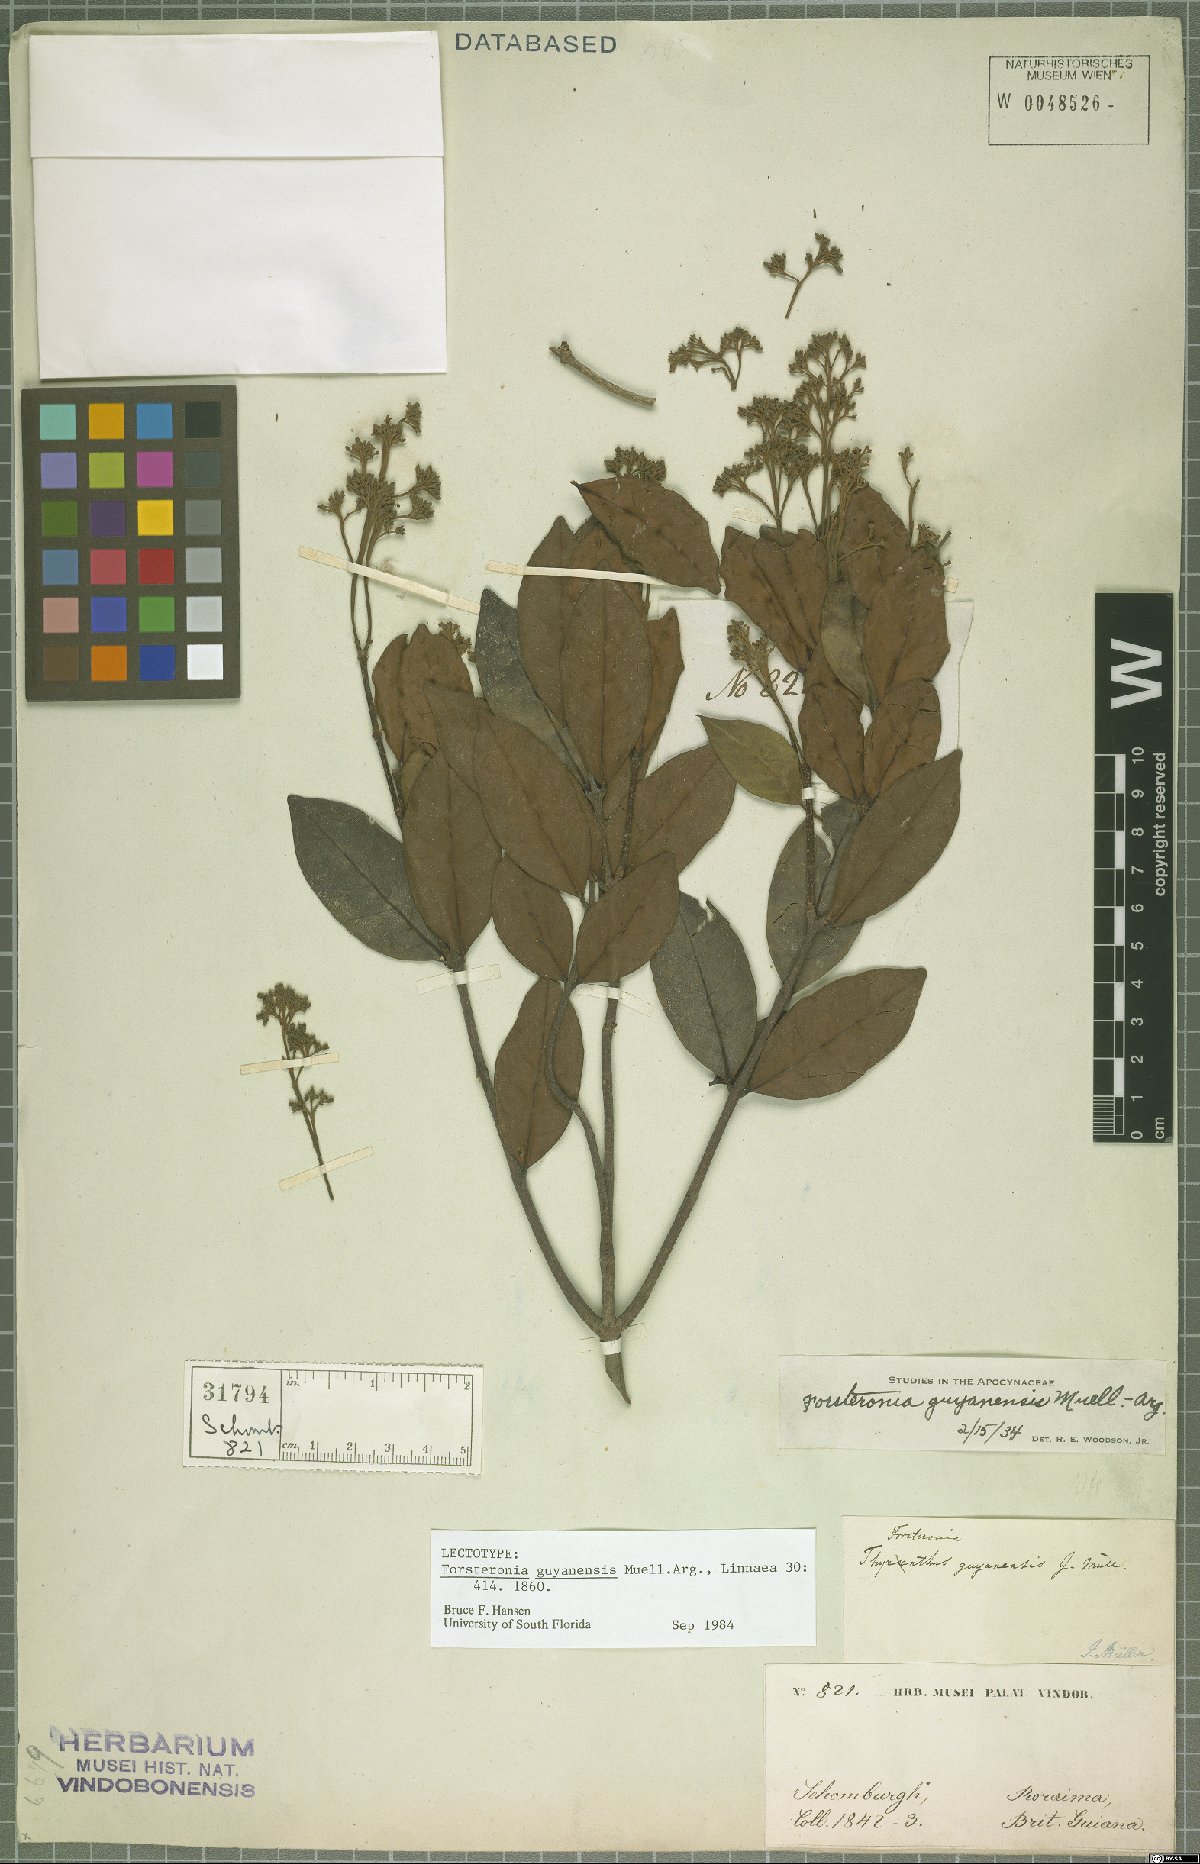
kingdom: Plantae
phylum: Tracheophyta
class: Magnoliopsida
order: Gentianales
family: Apocynaceae
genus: Forsteronia
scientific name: Forsteronia guyanensis
